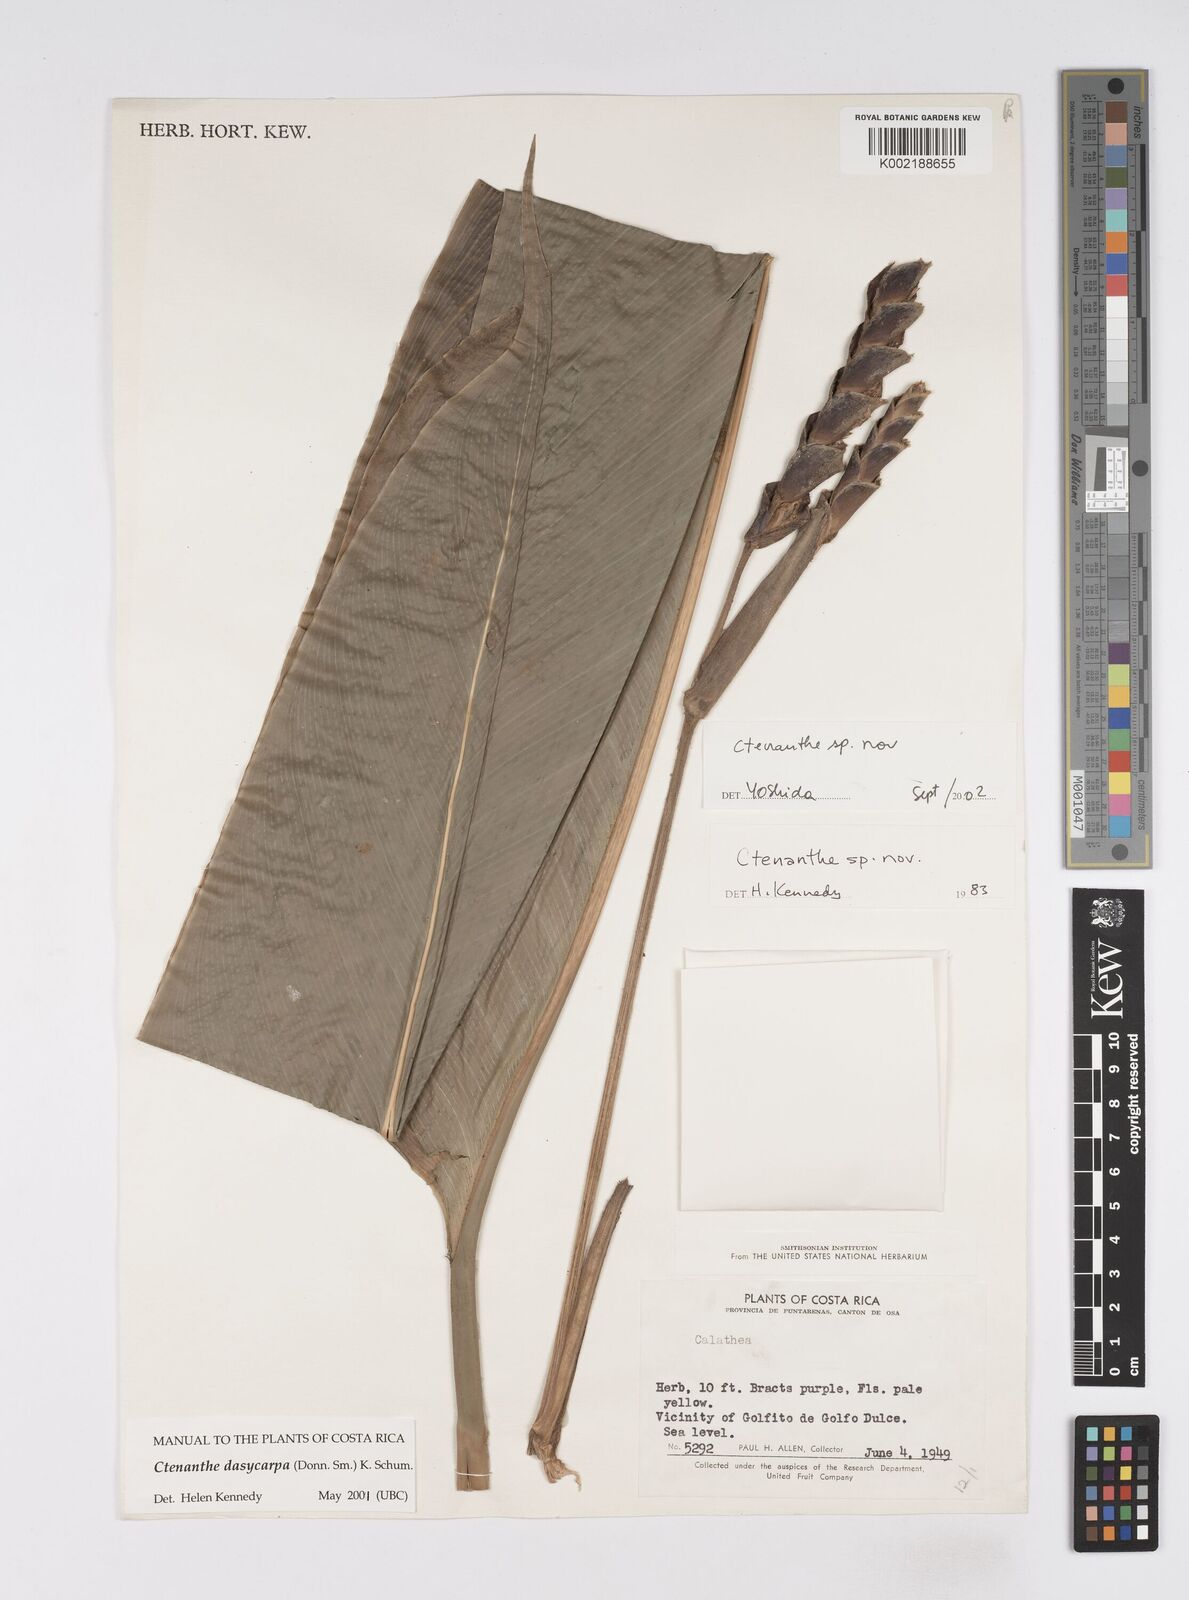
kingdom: Plantae
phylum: Tracheophyta
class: Liliopsida
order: Zingiberales
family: Marantaceae
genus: Ctenanthe
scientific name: Ctenanthe
